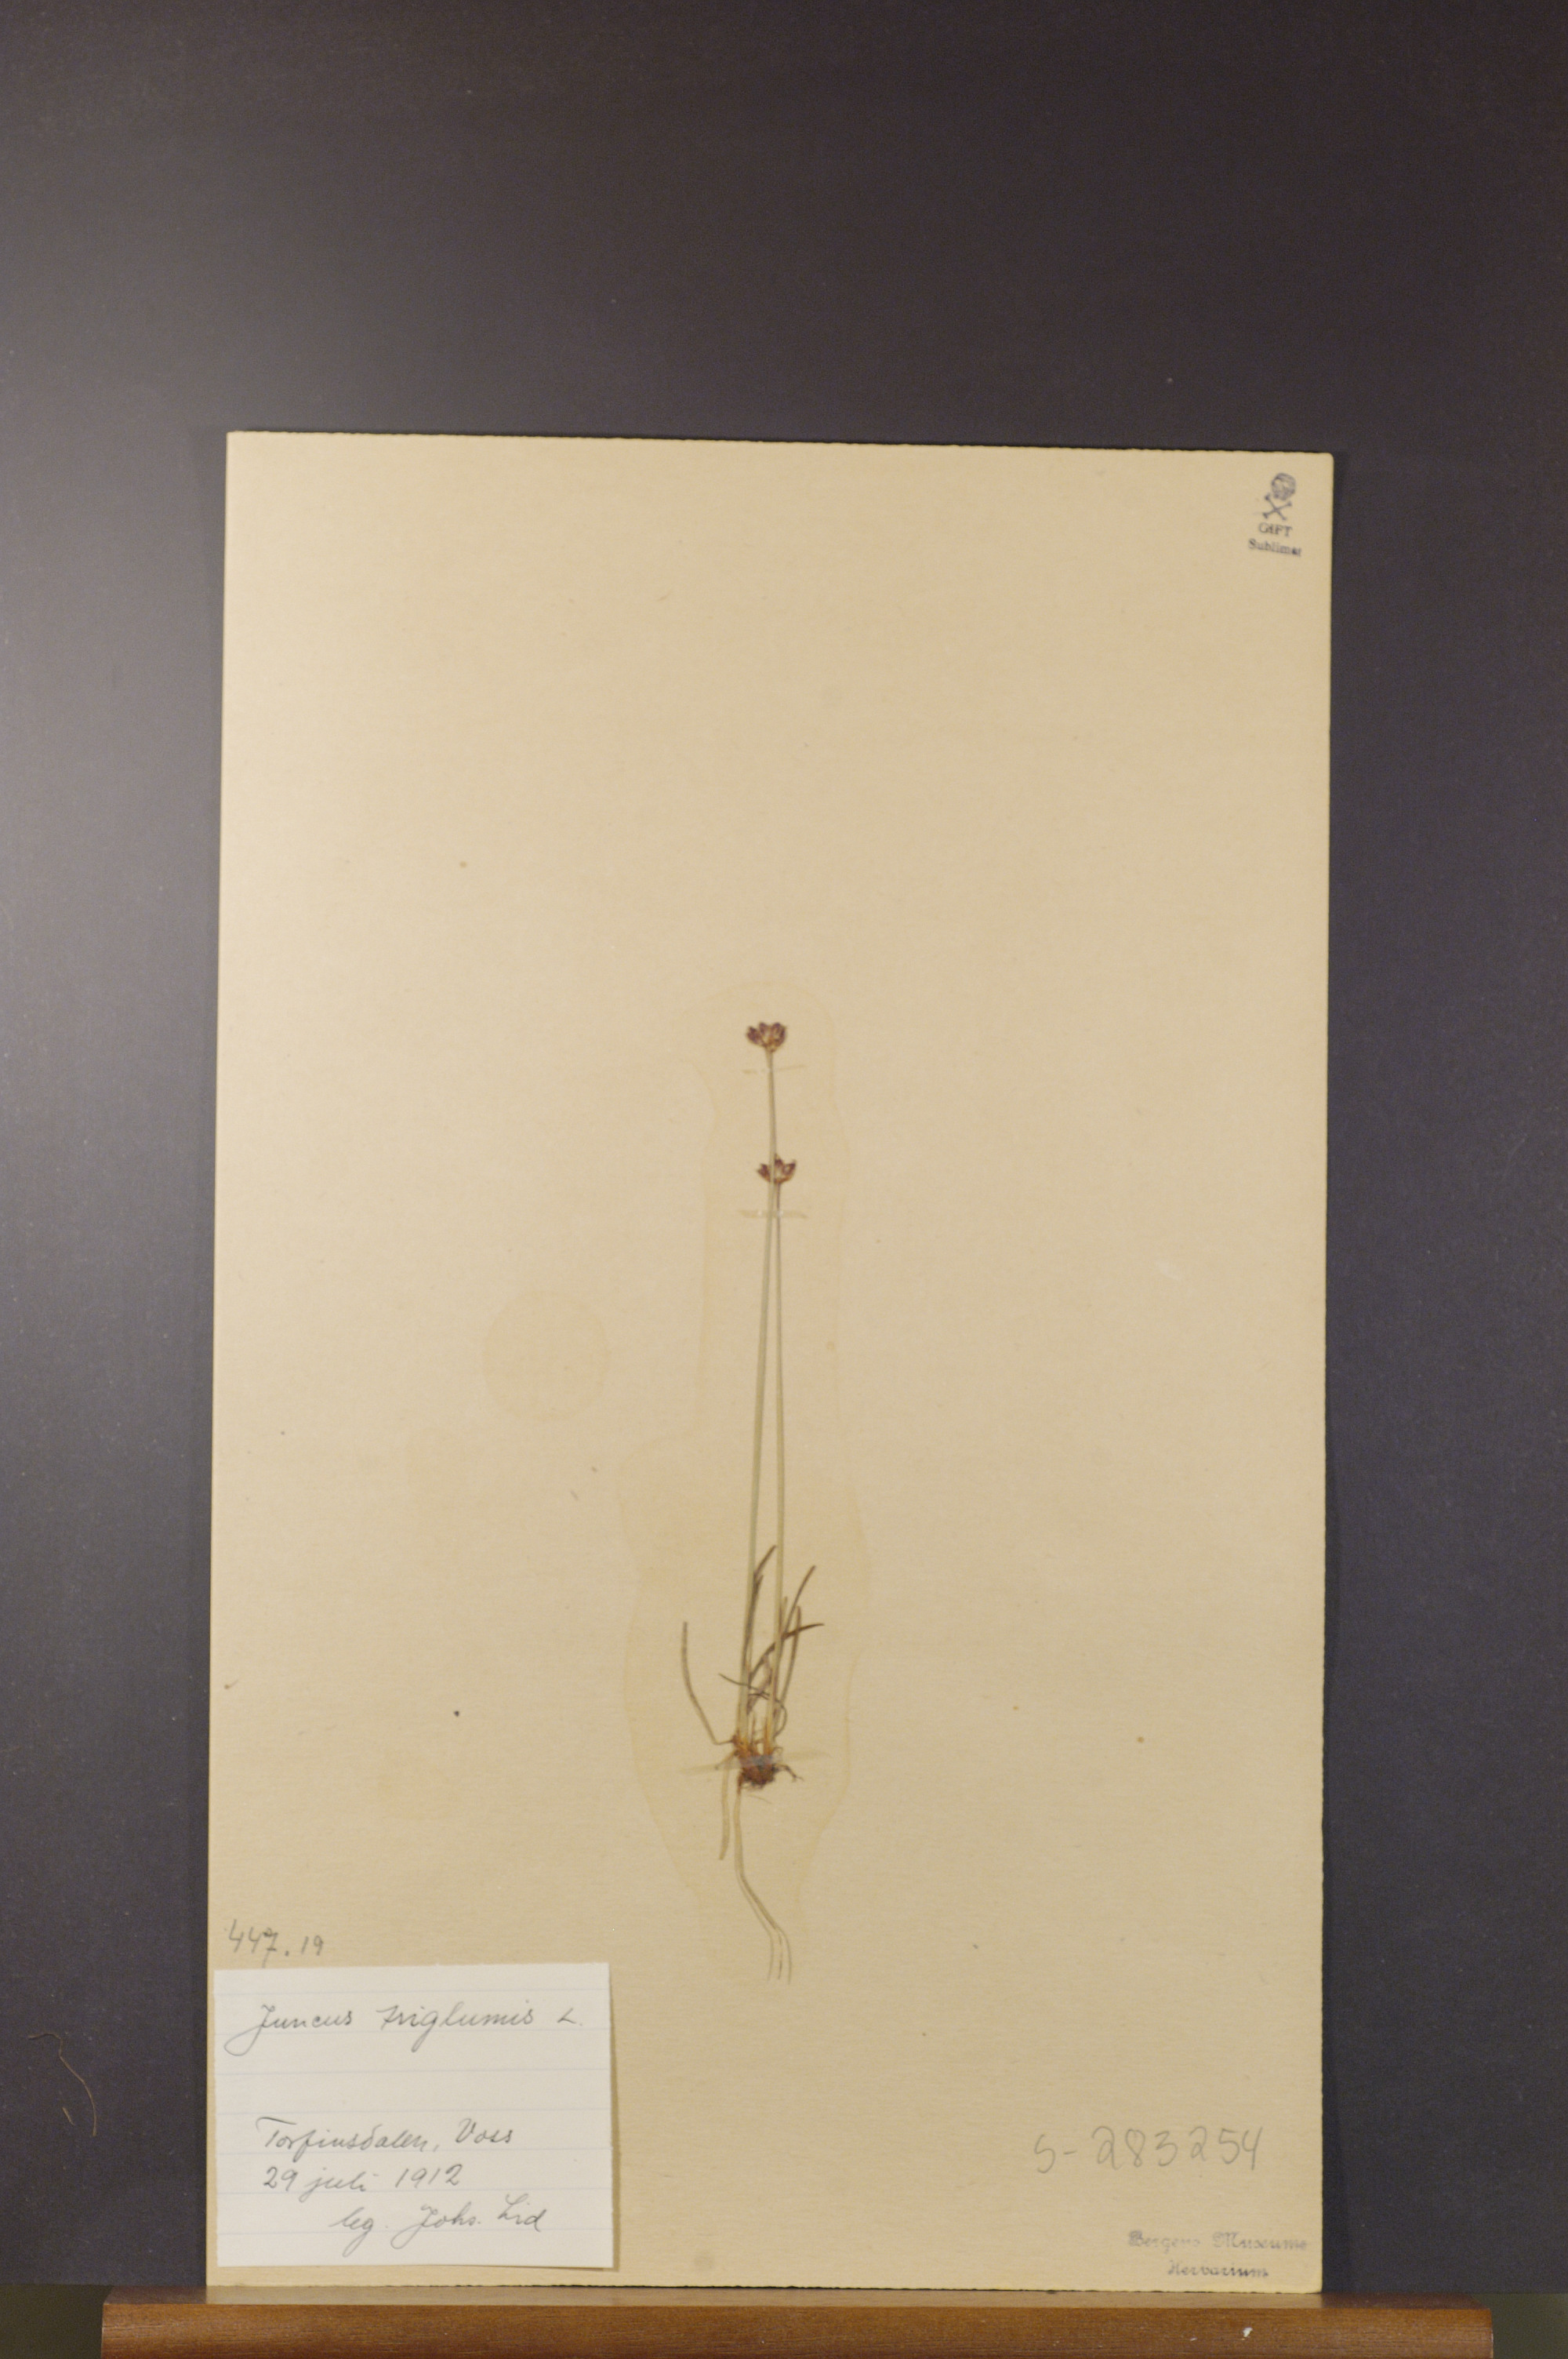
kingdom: Plantae
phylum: Tracheophyta
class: Liliopsida
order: Poales
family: Juncaceae
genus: Juncus
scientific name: Juncus triglumis
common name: Three-flowered rush
